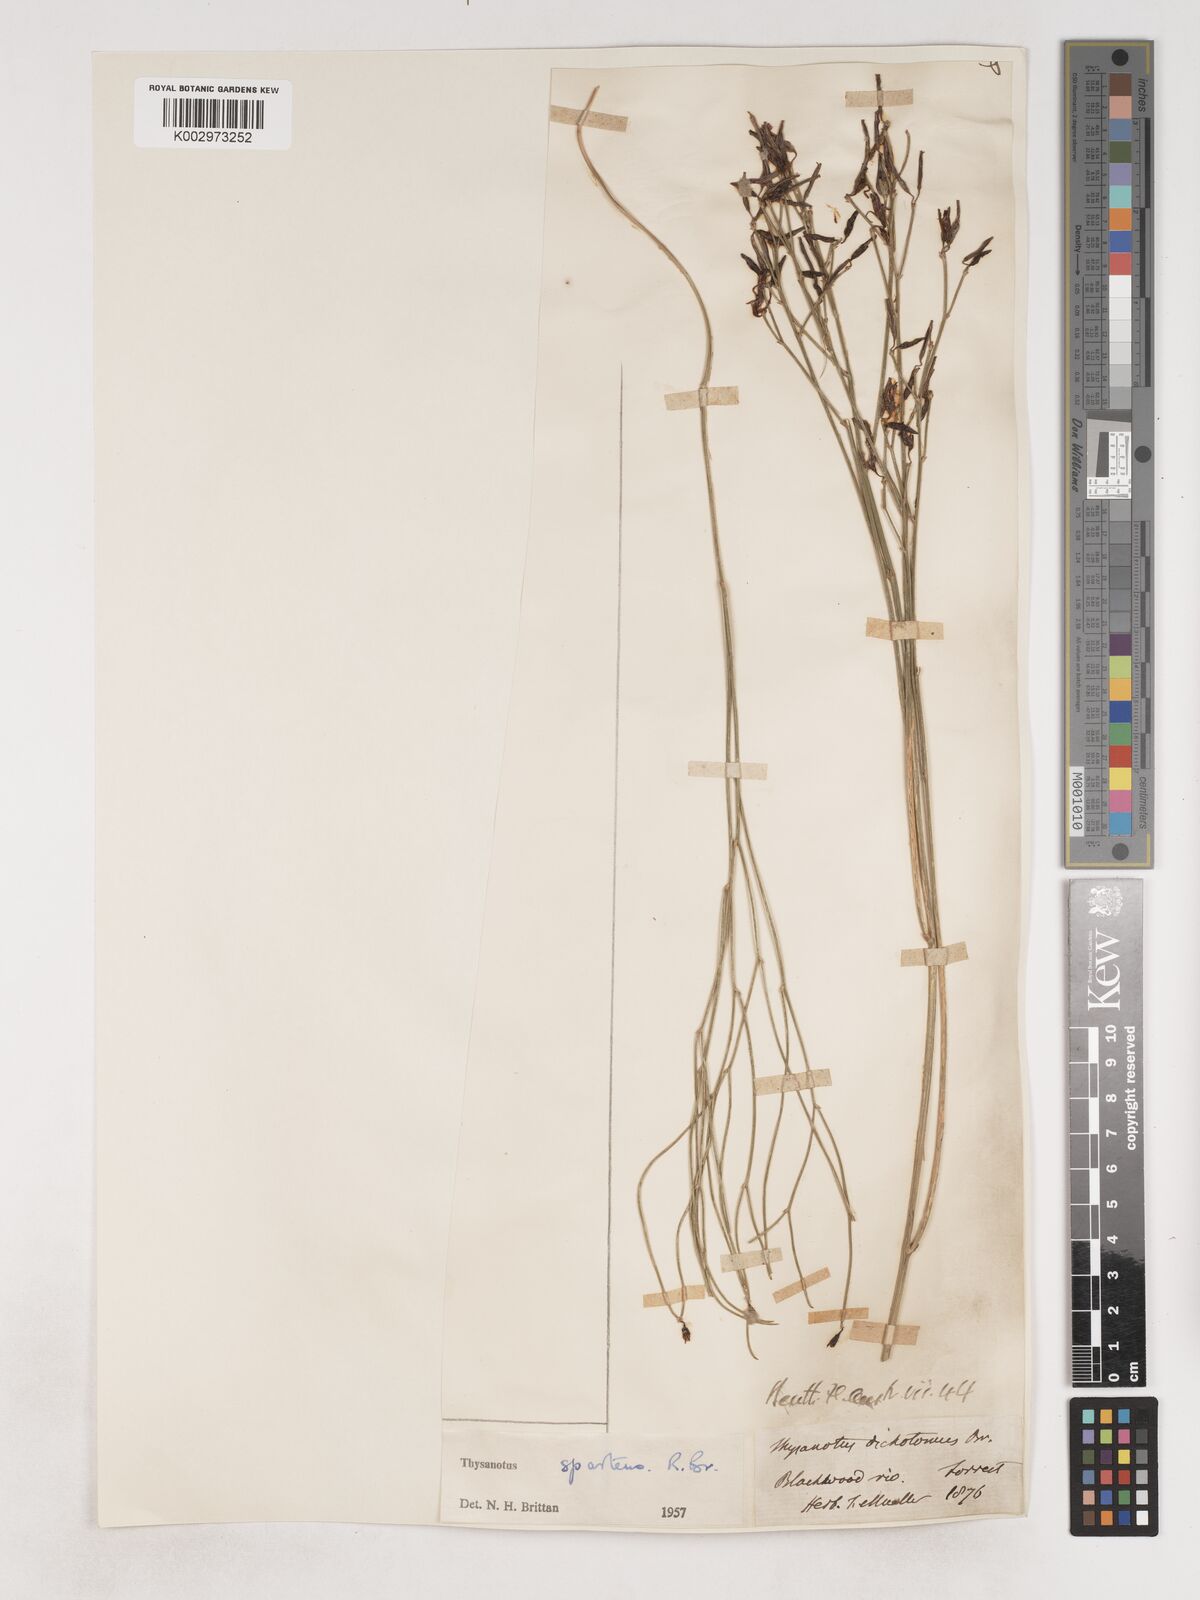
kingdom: Plantae
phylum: Tracheophyta
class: Liliopsida
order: Asparagales
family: Asparagaceae
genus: Thysanotus
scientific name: Thysanotus sparteus
